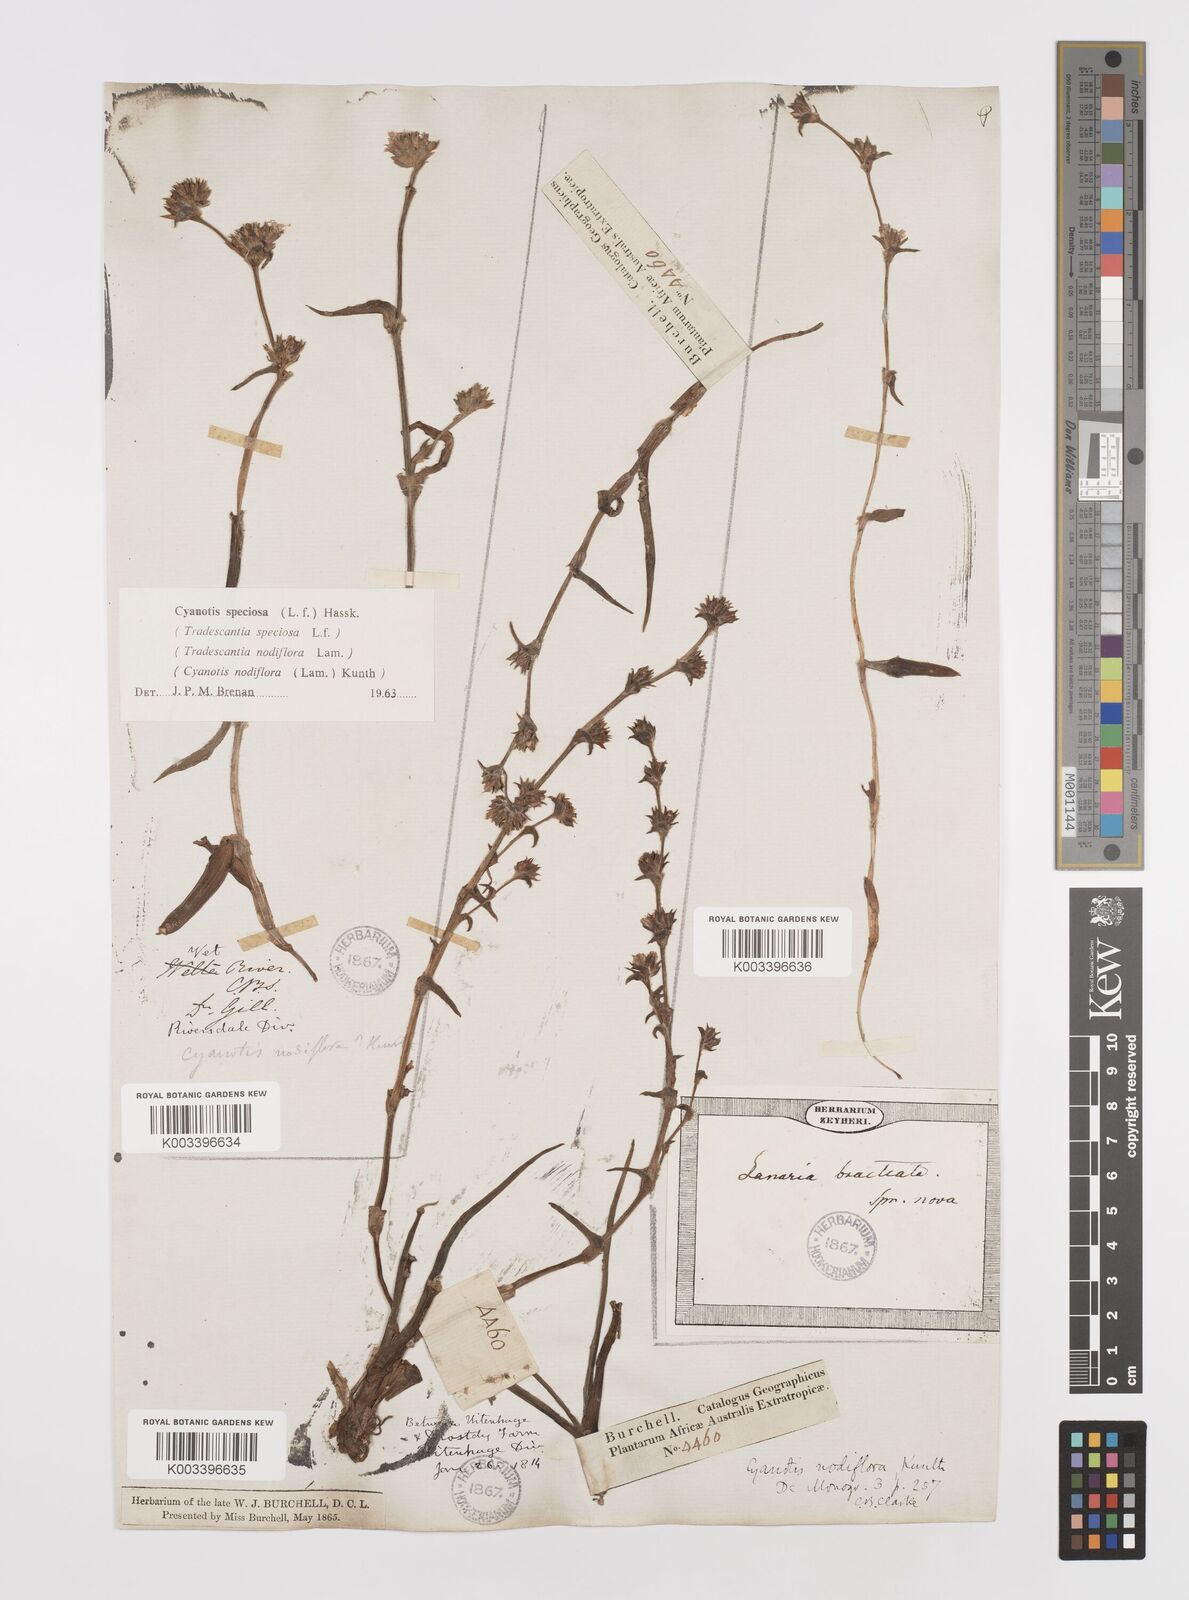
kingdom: Plantae
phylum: Tracheophyta
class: Liliopsida
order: Commelinales
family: Commelinaceae
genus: Cyanotis
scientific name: Cyanotis speciosa
